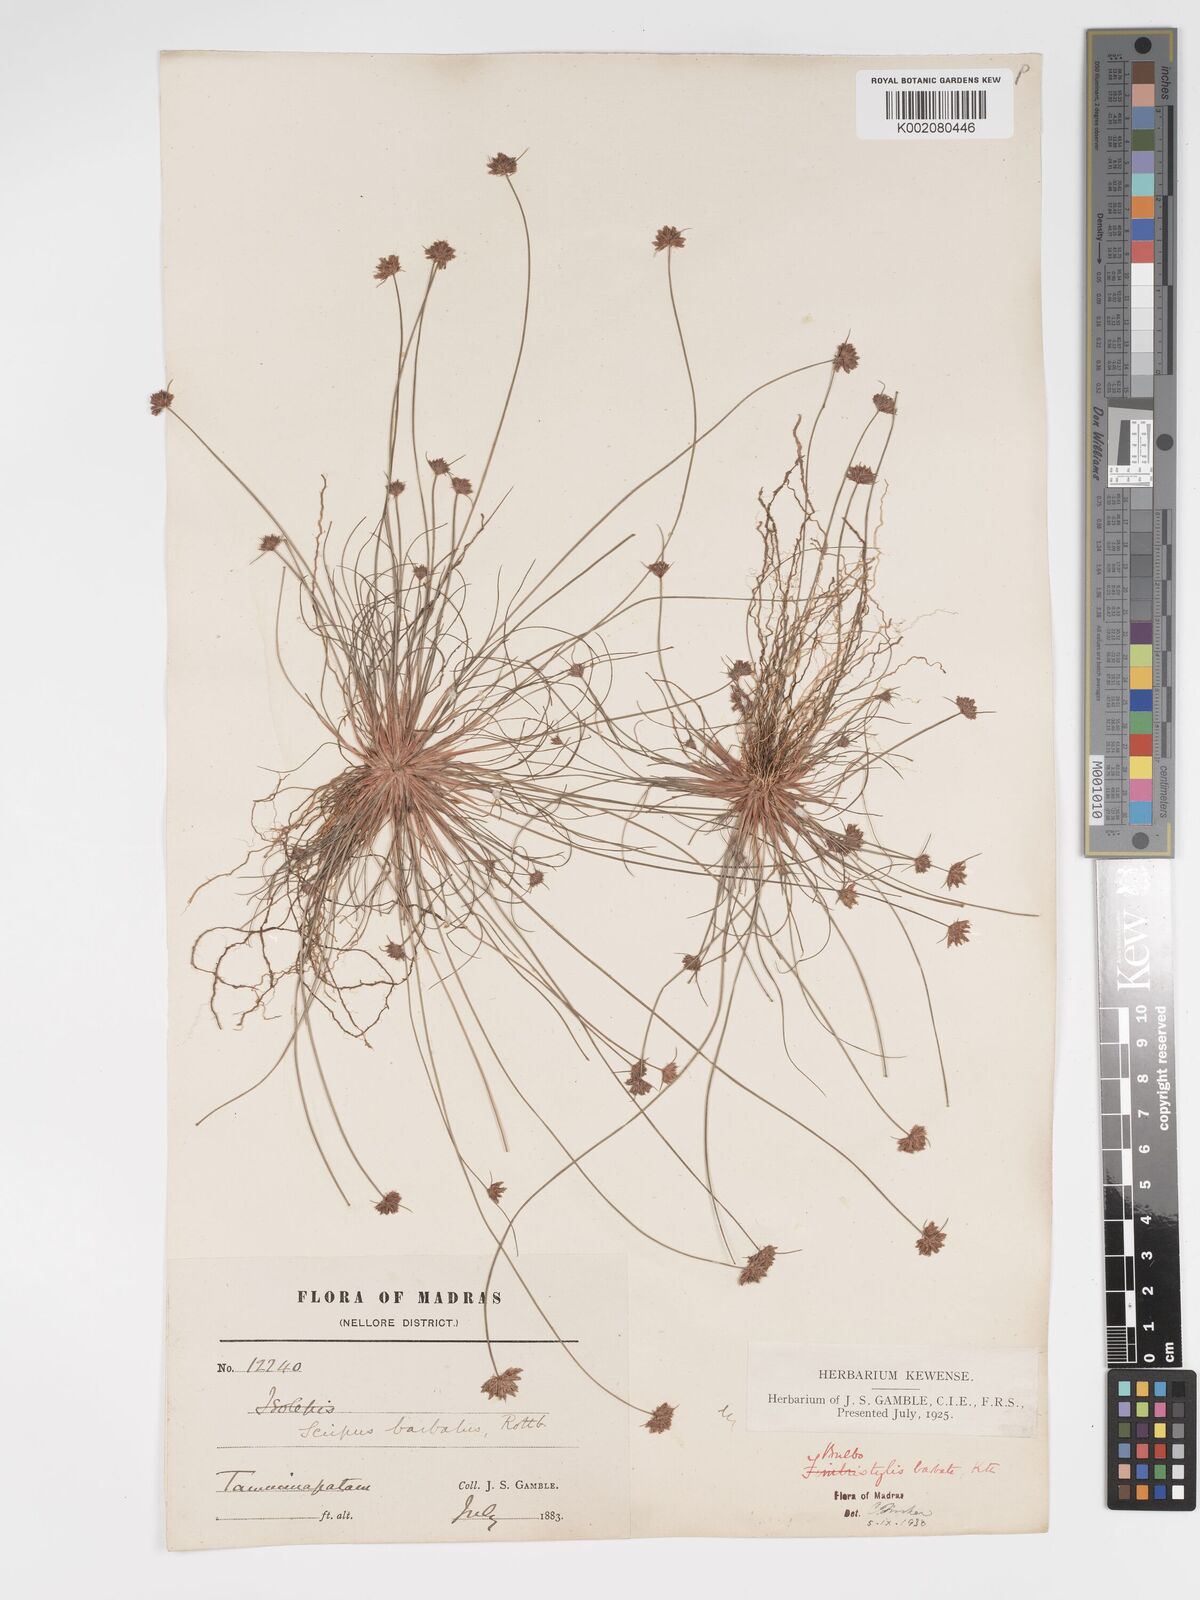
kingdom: Plantae
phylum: Tracheophyta
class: Liliopsida
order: Poales
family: Cyperaceae
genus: Bulbostylis
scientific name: Bulbostylis barbata
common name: Watergrass
